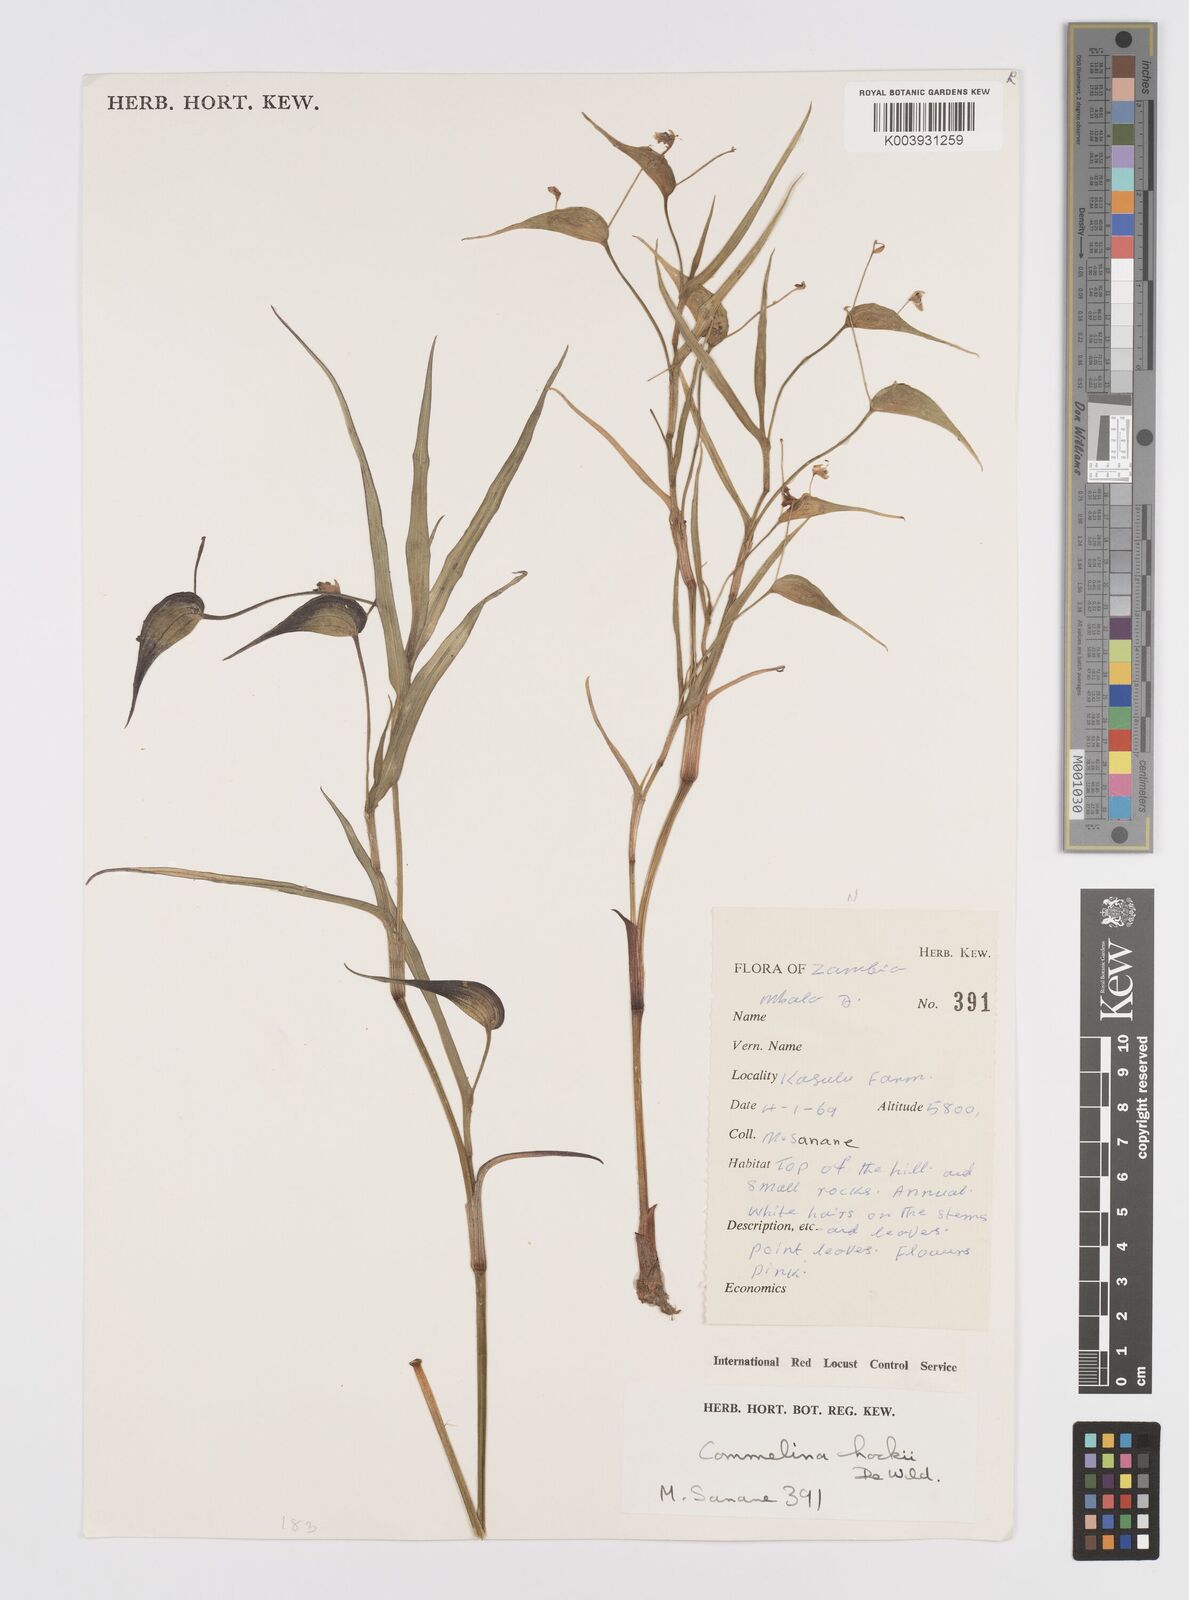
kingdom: Plantae
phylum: Tracheophyta
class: Liliopsida
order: Commelinales
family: Commelinaceae
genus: Commelina
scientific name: Commelina hockii
